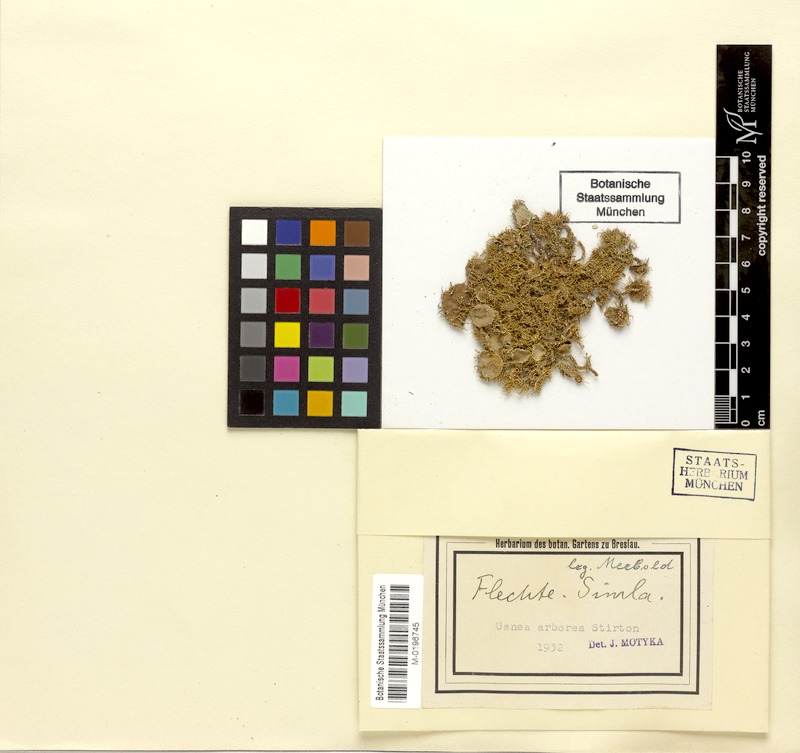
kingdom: Fungi
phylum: Ascomycota
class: Lecanoromycetes
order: Lecanorales
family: Parmeliaceae
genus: Usnea
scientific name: Usnea
